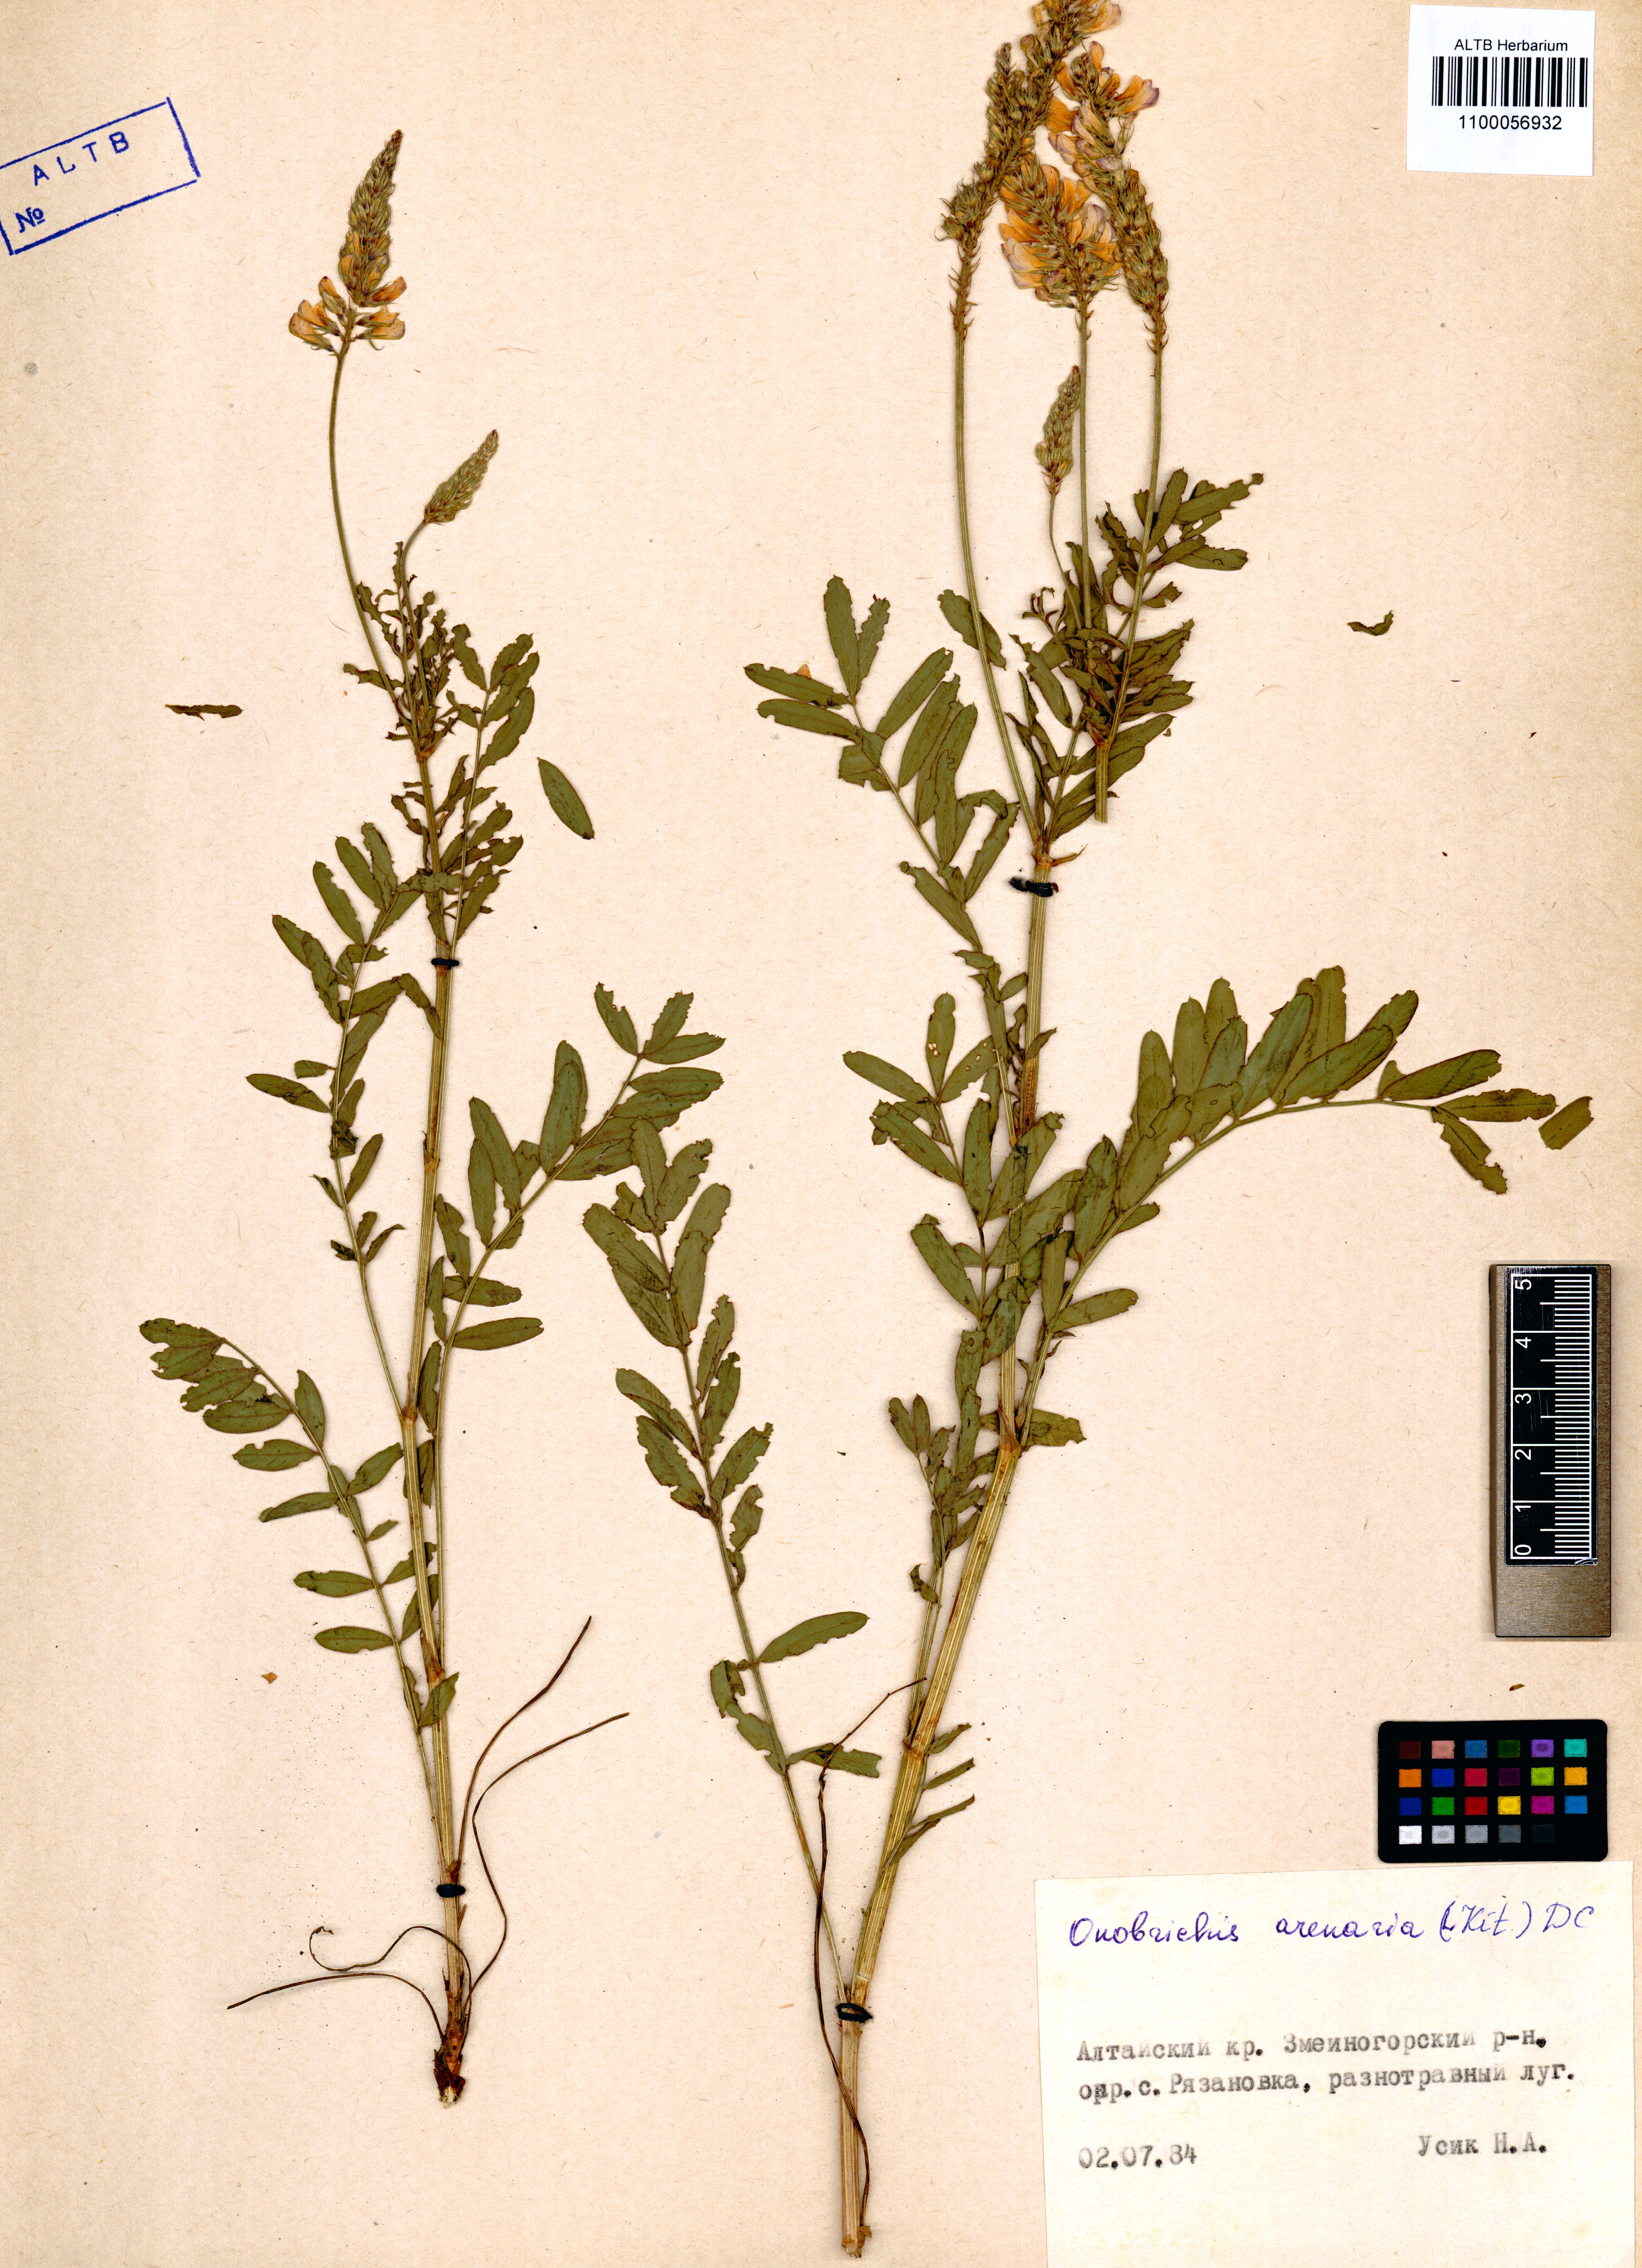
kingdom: Plantae
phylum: Tracheophyta
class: Magnoliopsida
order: Fabales
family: Fabaceae
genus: Onobrychis
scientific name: Onobrychis arenaria
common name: Sand esparcet
